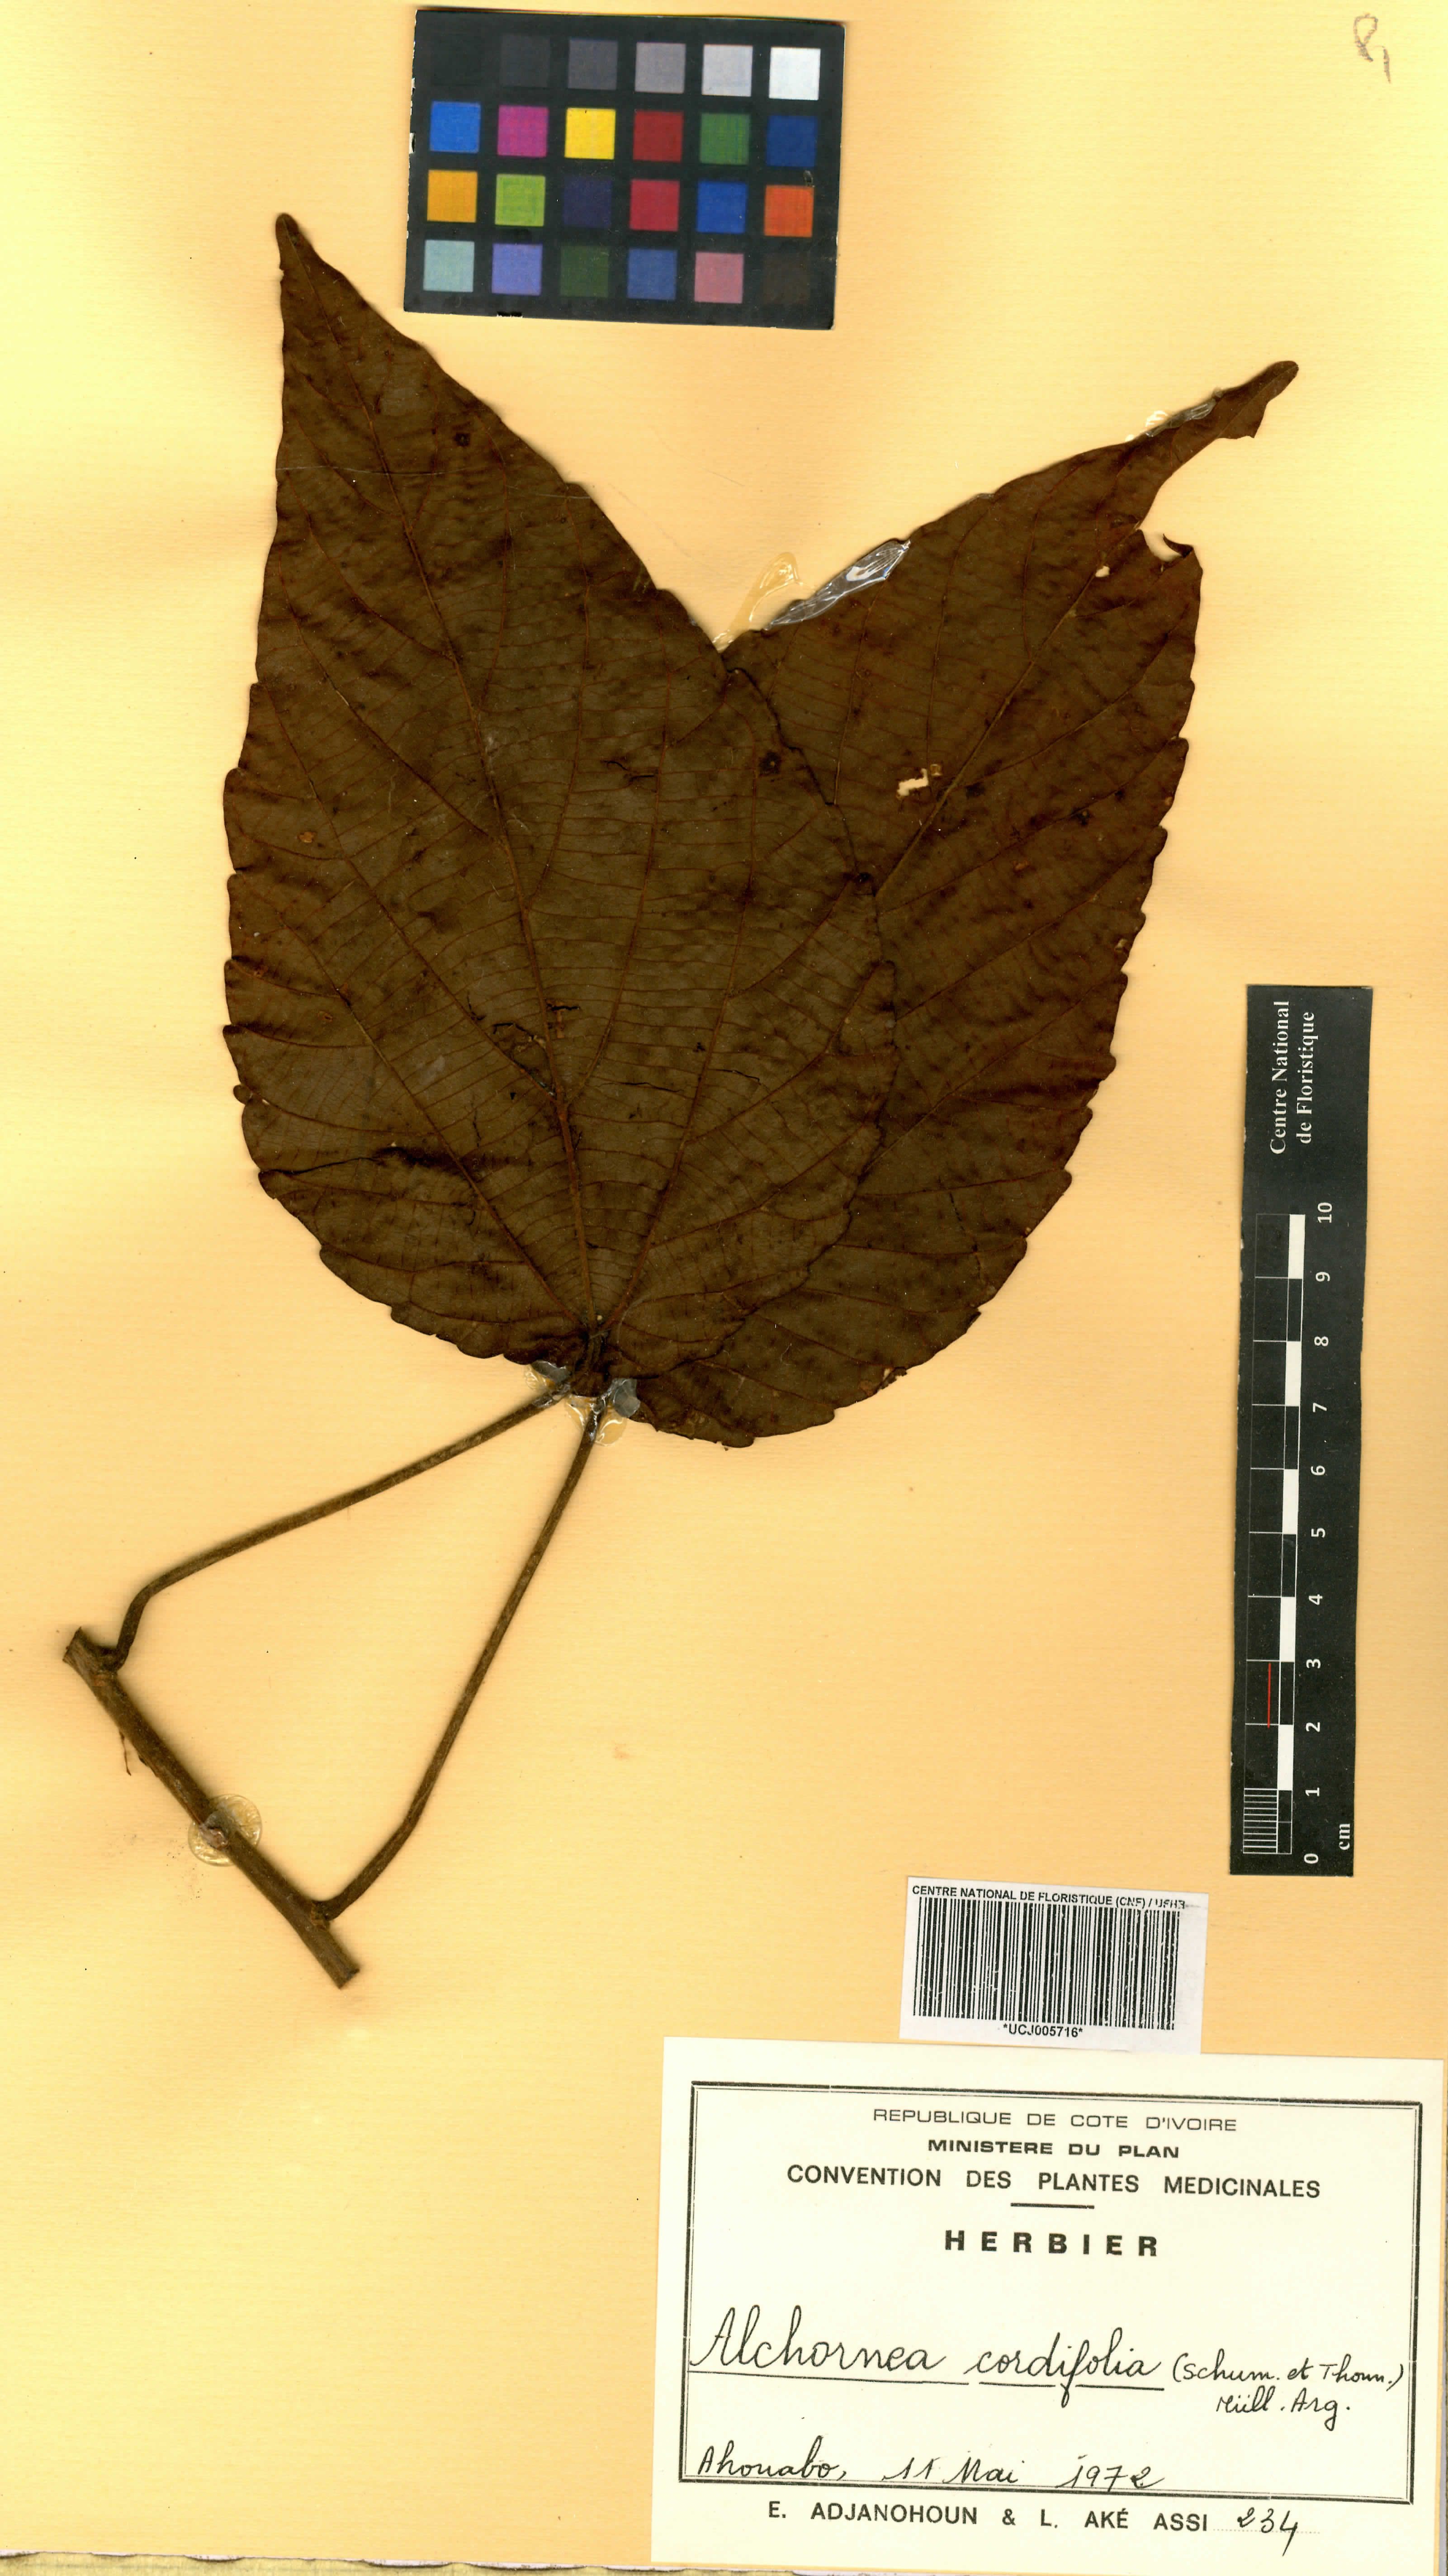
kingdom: Plantae
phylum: Tracheophyta
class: Magnoliopsida
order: Malpighiales
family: Euphorbiaceae
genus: Alchornea
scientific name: Alchornea cordifolia
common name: Christmasbush
